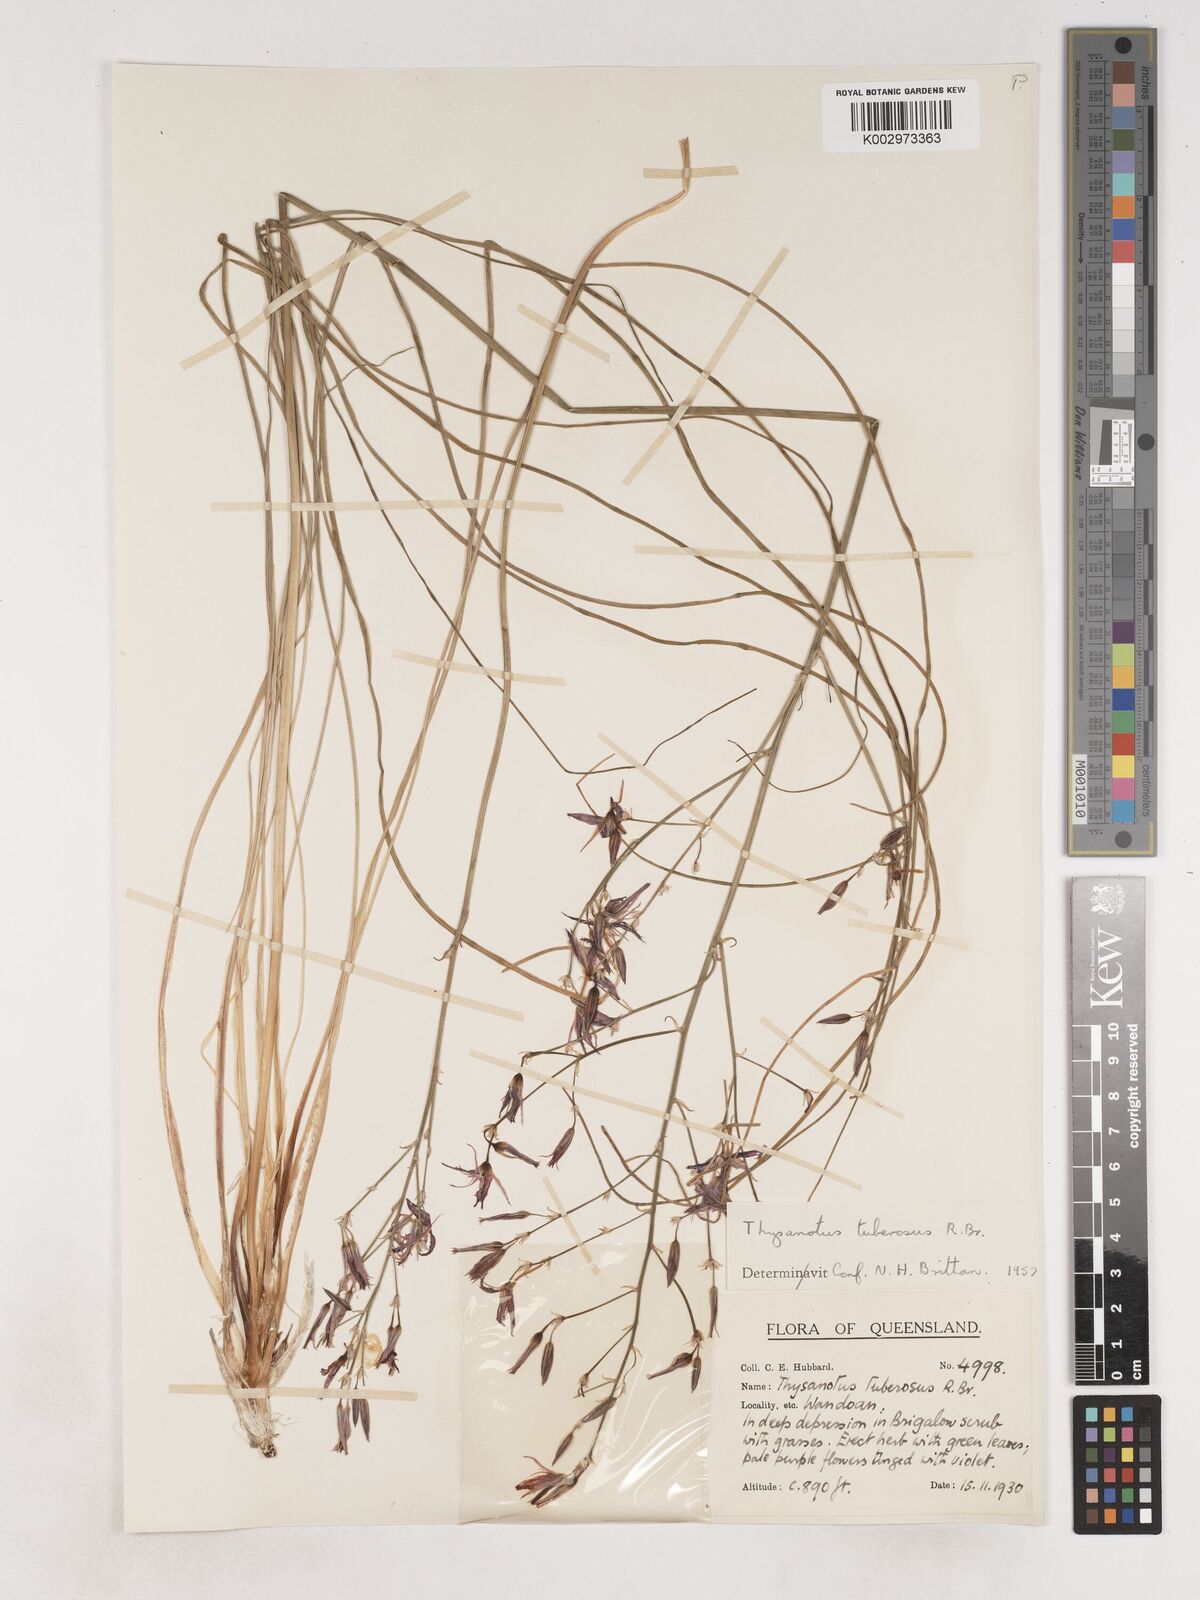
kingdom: Plantae
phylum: Tracheophyta
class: Liliopsida
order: Asparagales
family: Asparagaceae
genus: Thysanotus
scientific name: Thysanotus tuberosus
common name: Common fringed-lily
